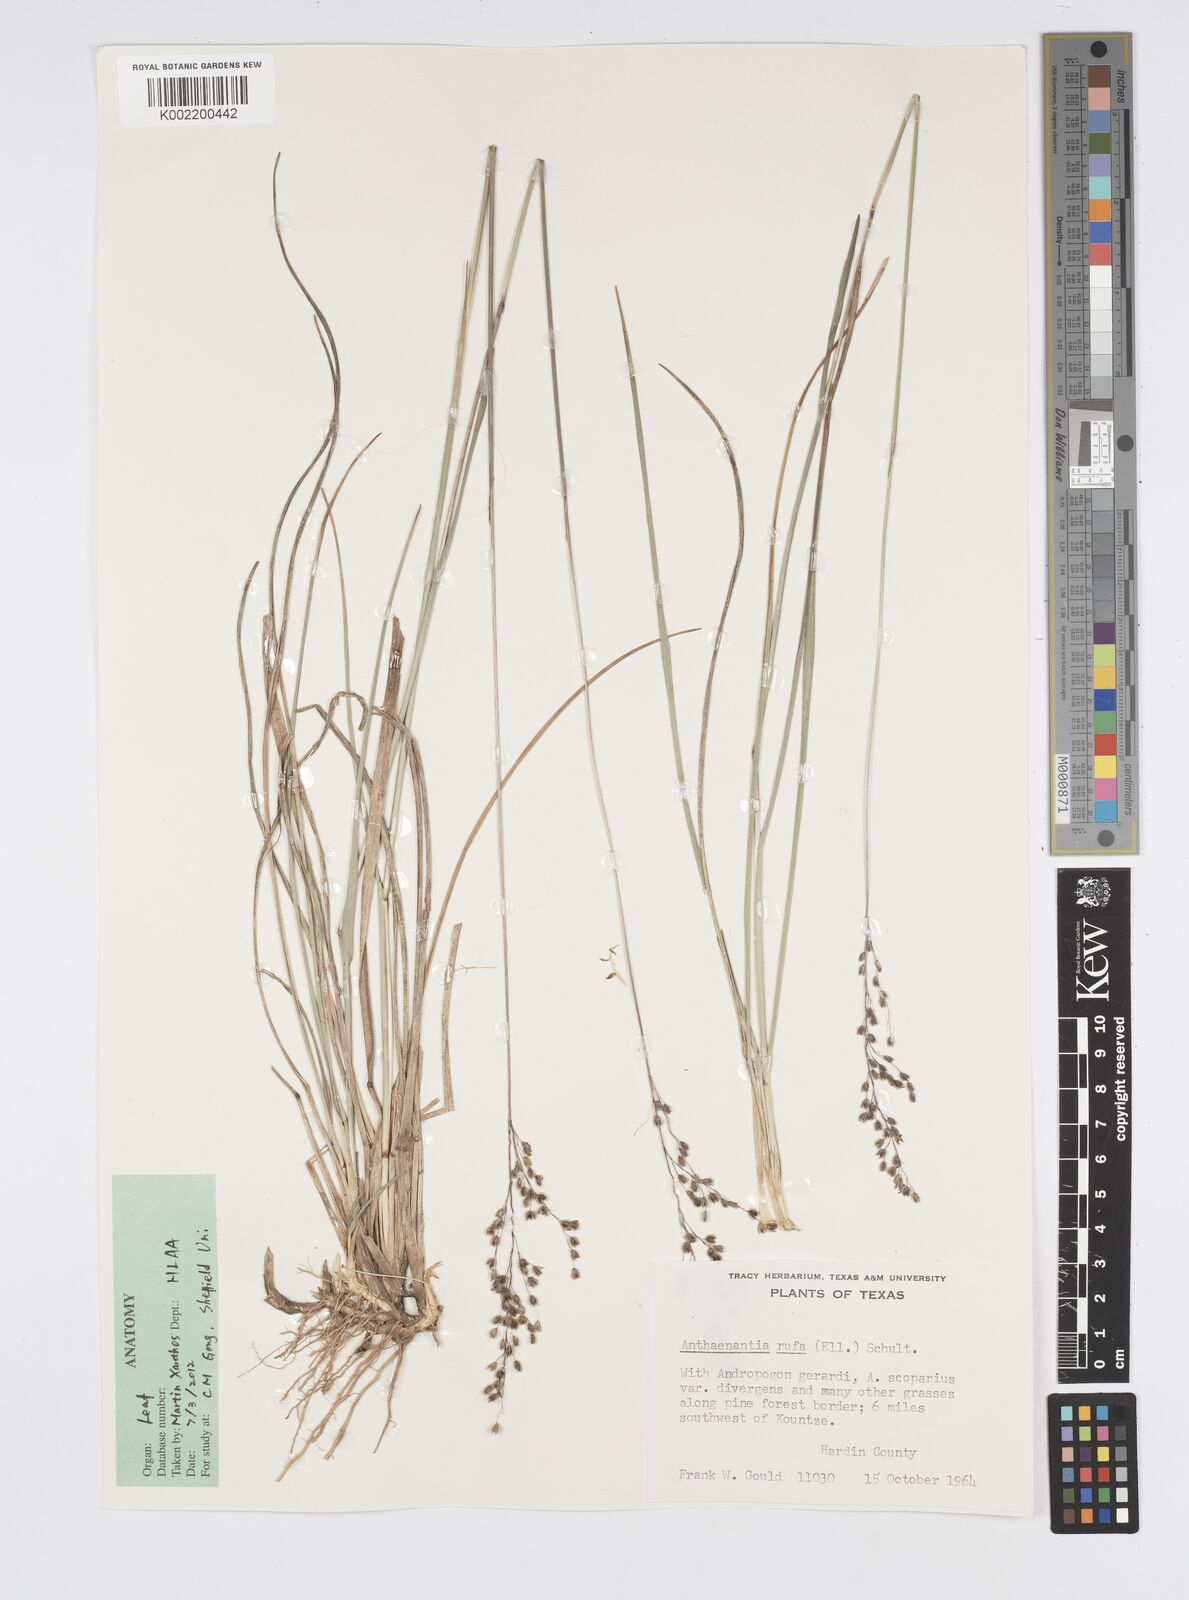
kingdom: Plantae
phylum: Tracheophyta
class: Liliopsida
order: Poales
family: Poaceae
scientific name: Poaceae
